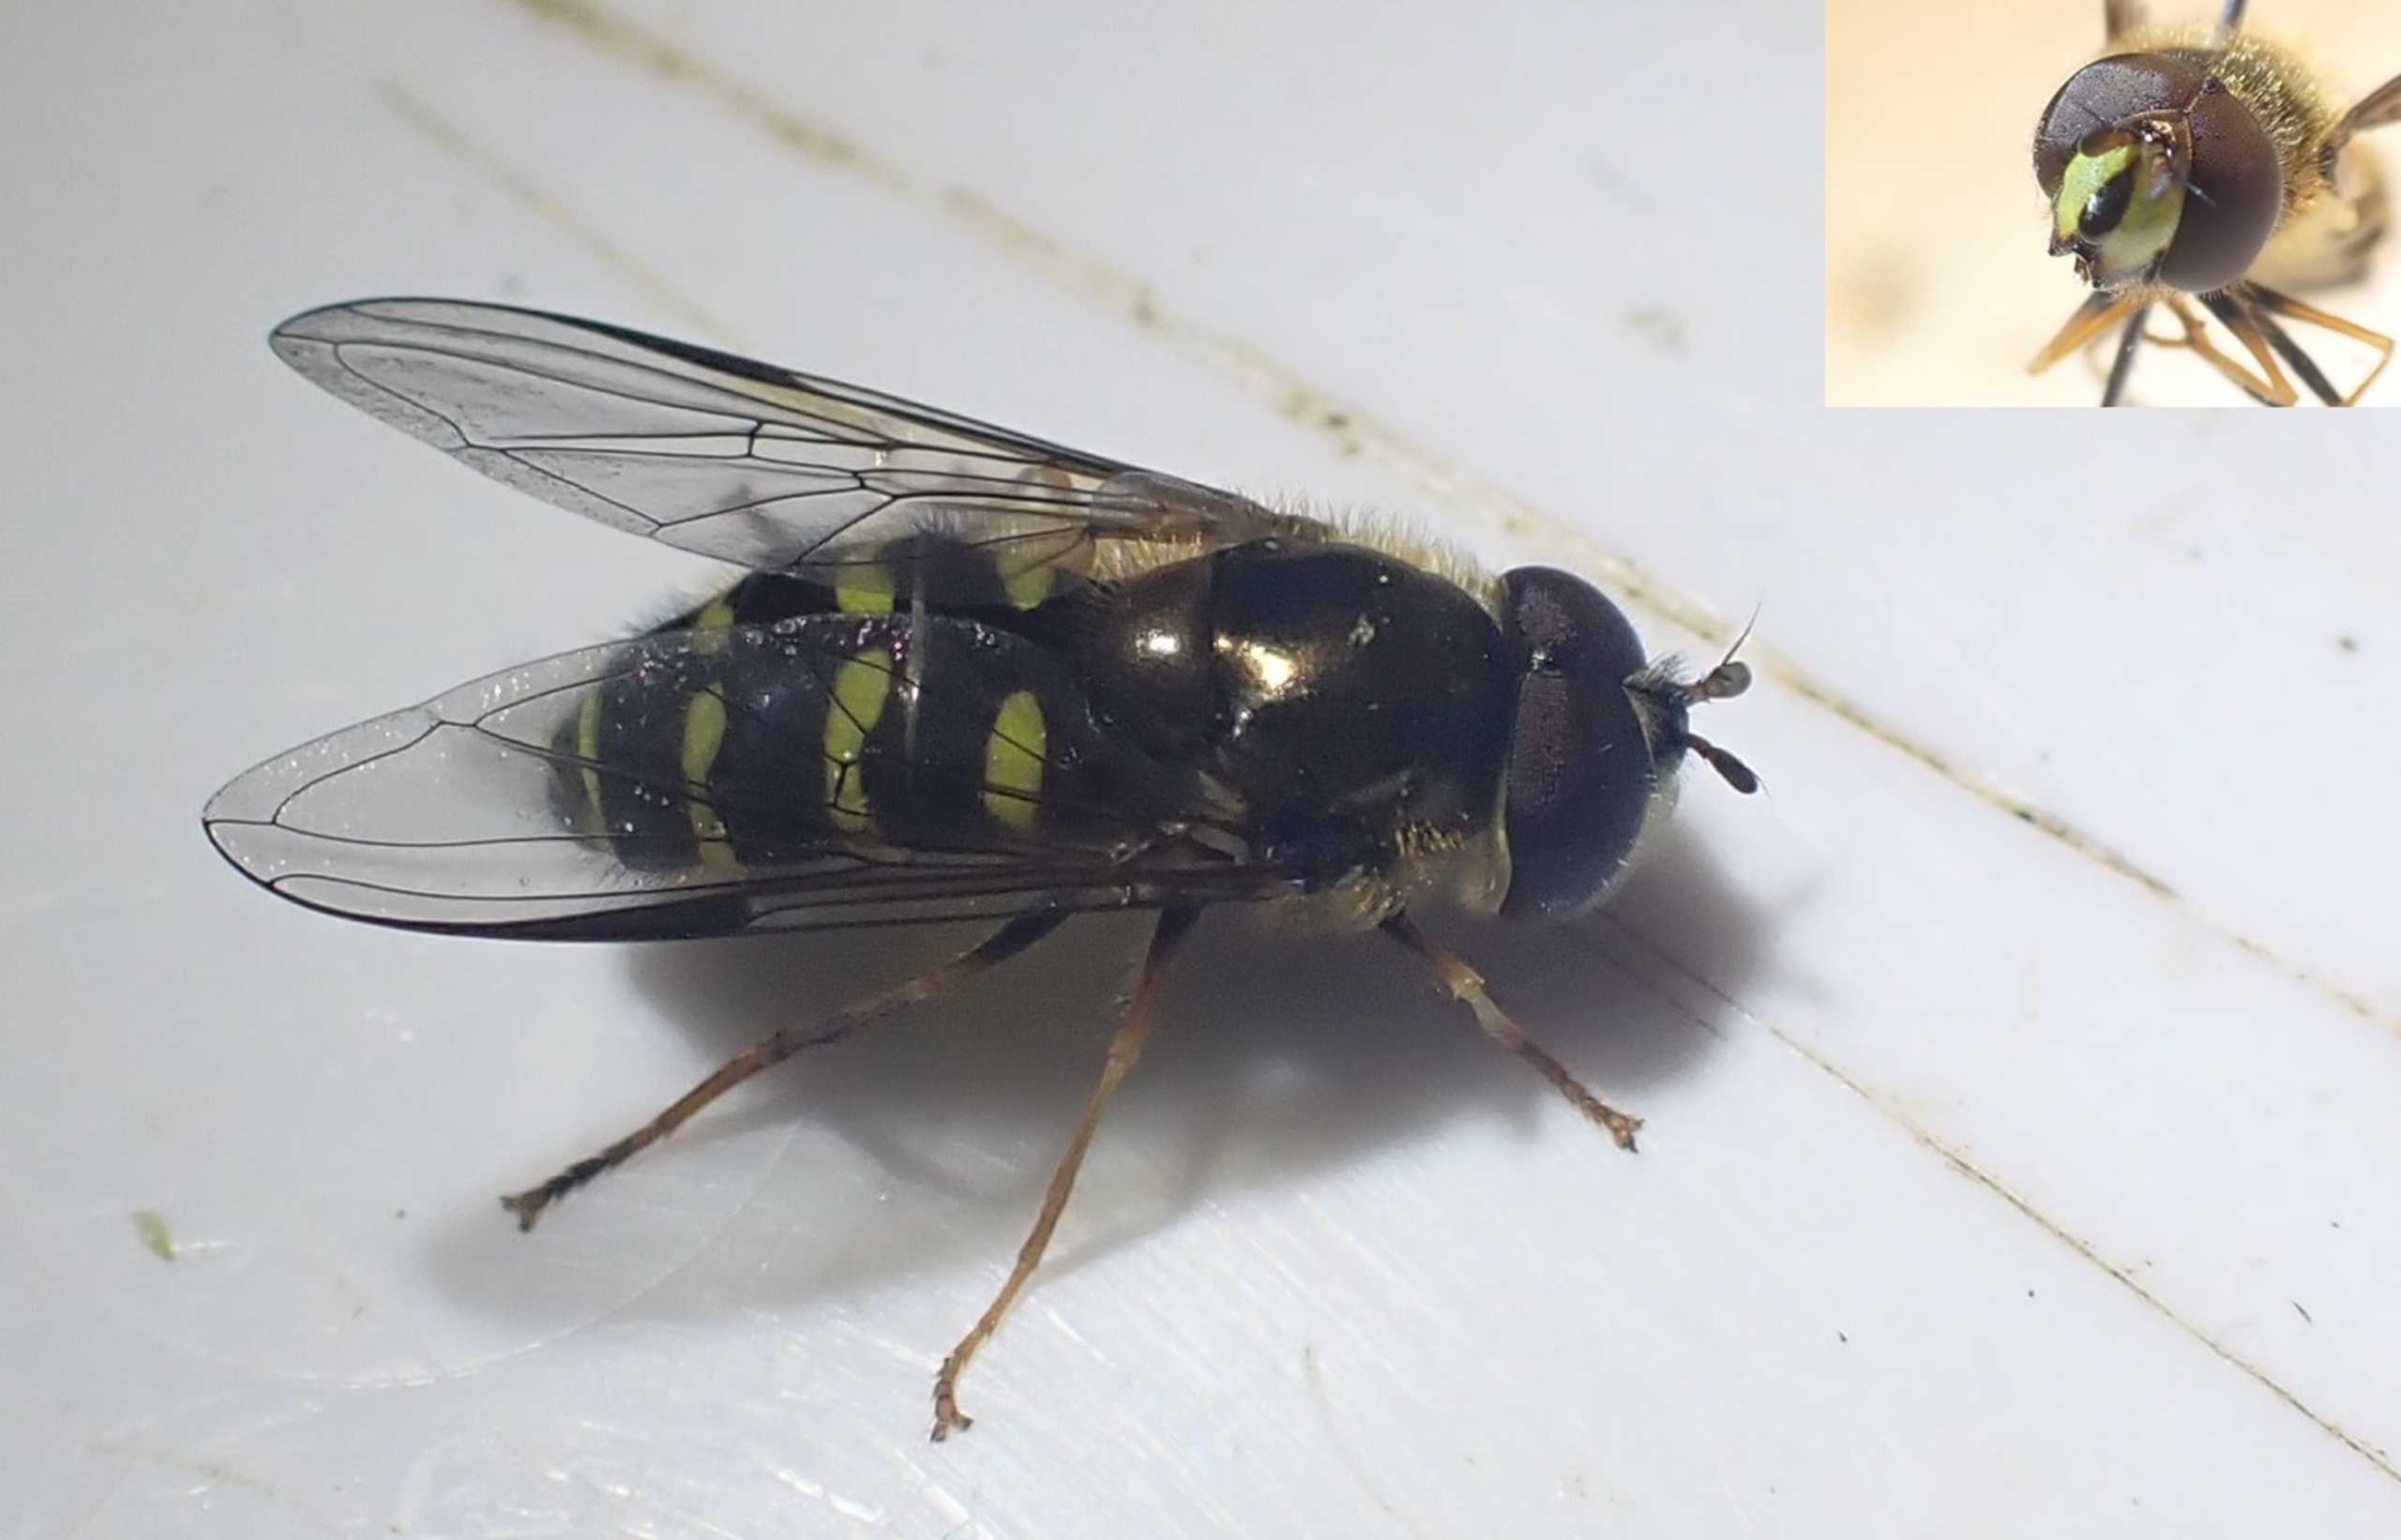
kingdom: Animalia
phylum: Arthropoda
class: Insecta
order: Diptera
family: Syrphidae
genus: Dasysyrphus
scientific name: Dasysyrphus venustus
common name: Smuk skovsvirreflue
